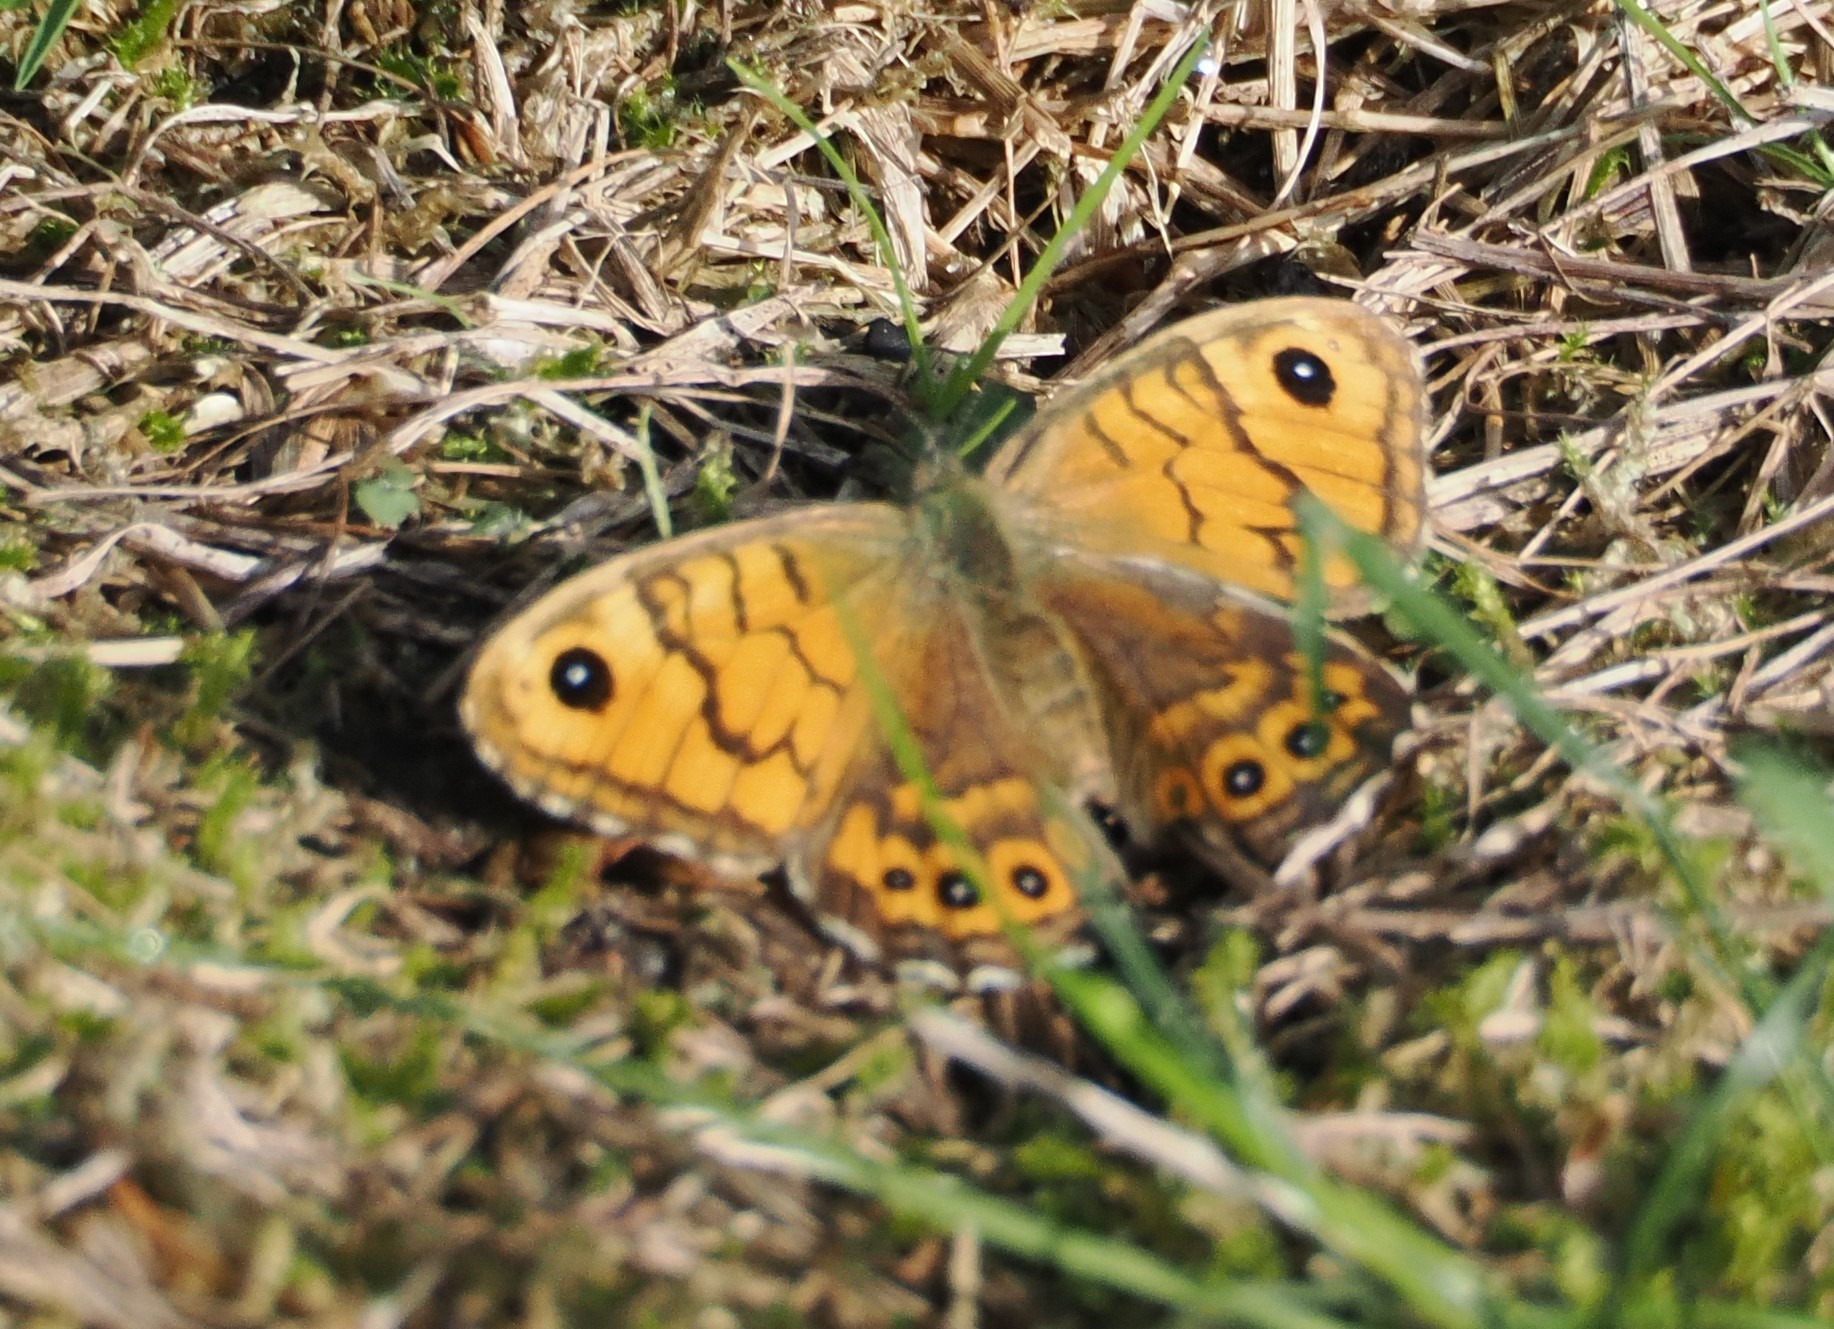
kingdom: Animalia
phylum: Arthropoda
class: Insecta
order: Lepidoptera
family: Nymphalidae
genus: Pararge
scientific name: Pararge Lasiommata megera
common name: Vejrandøje
